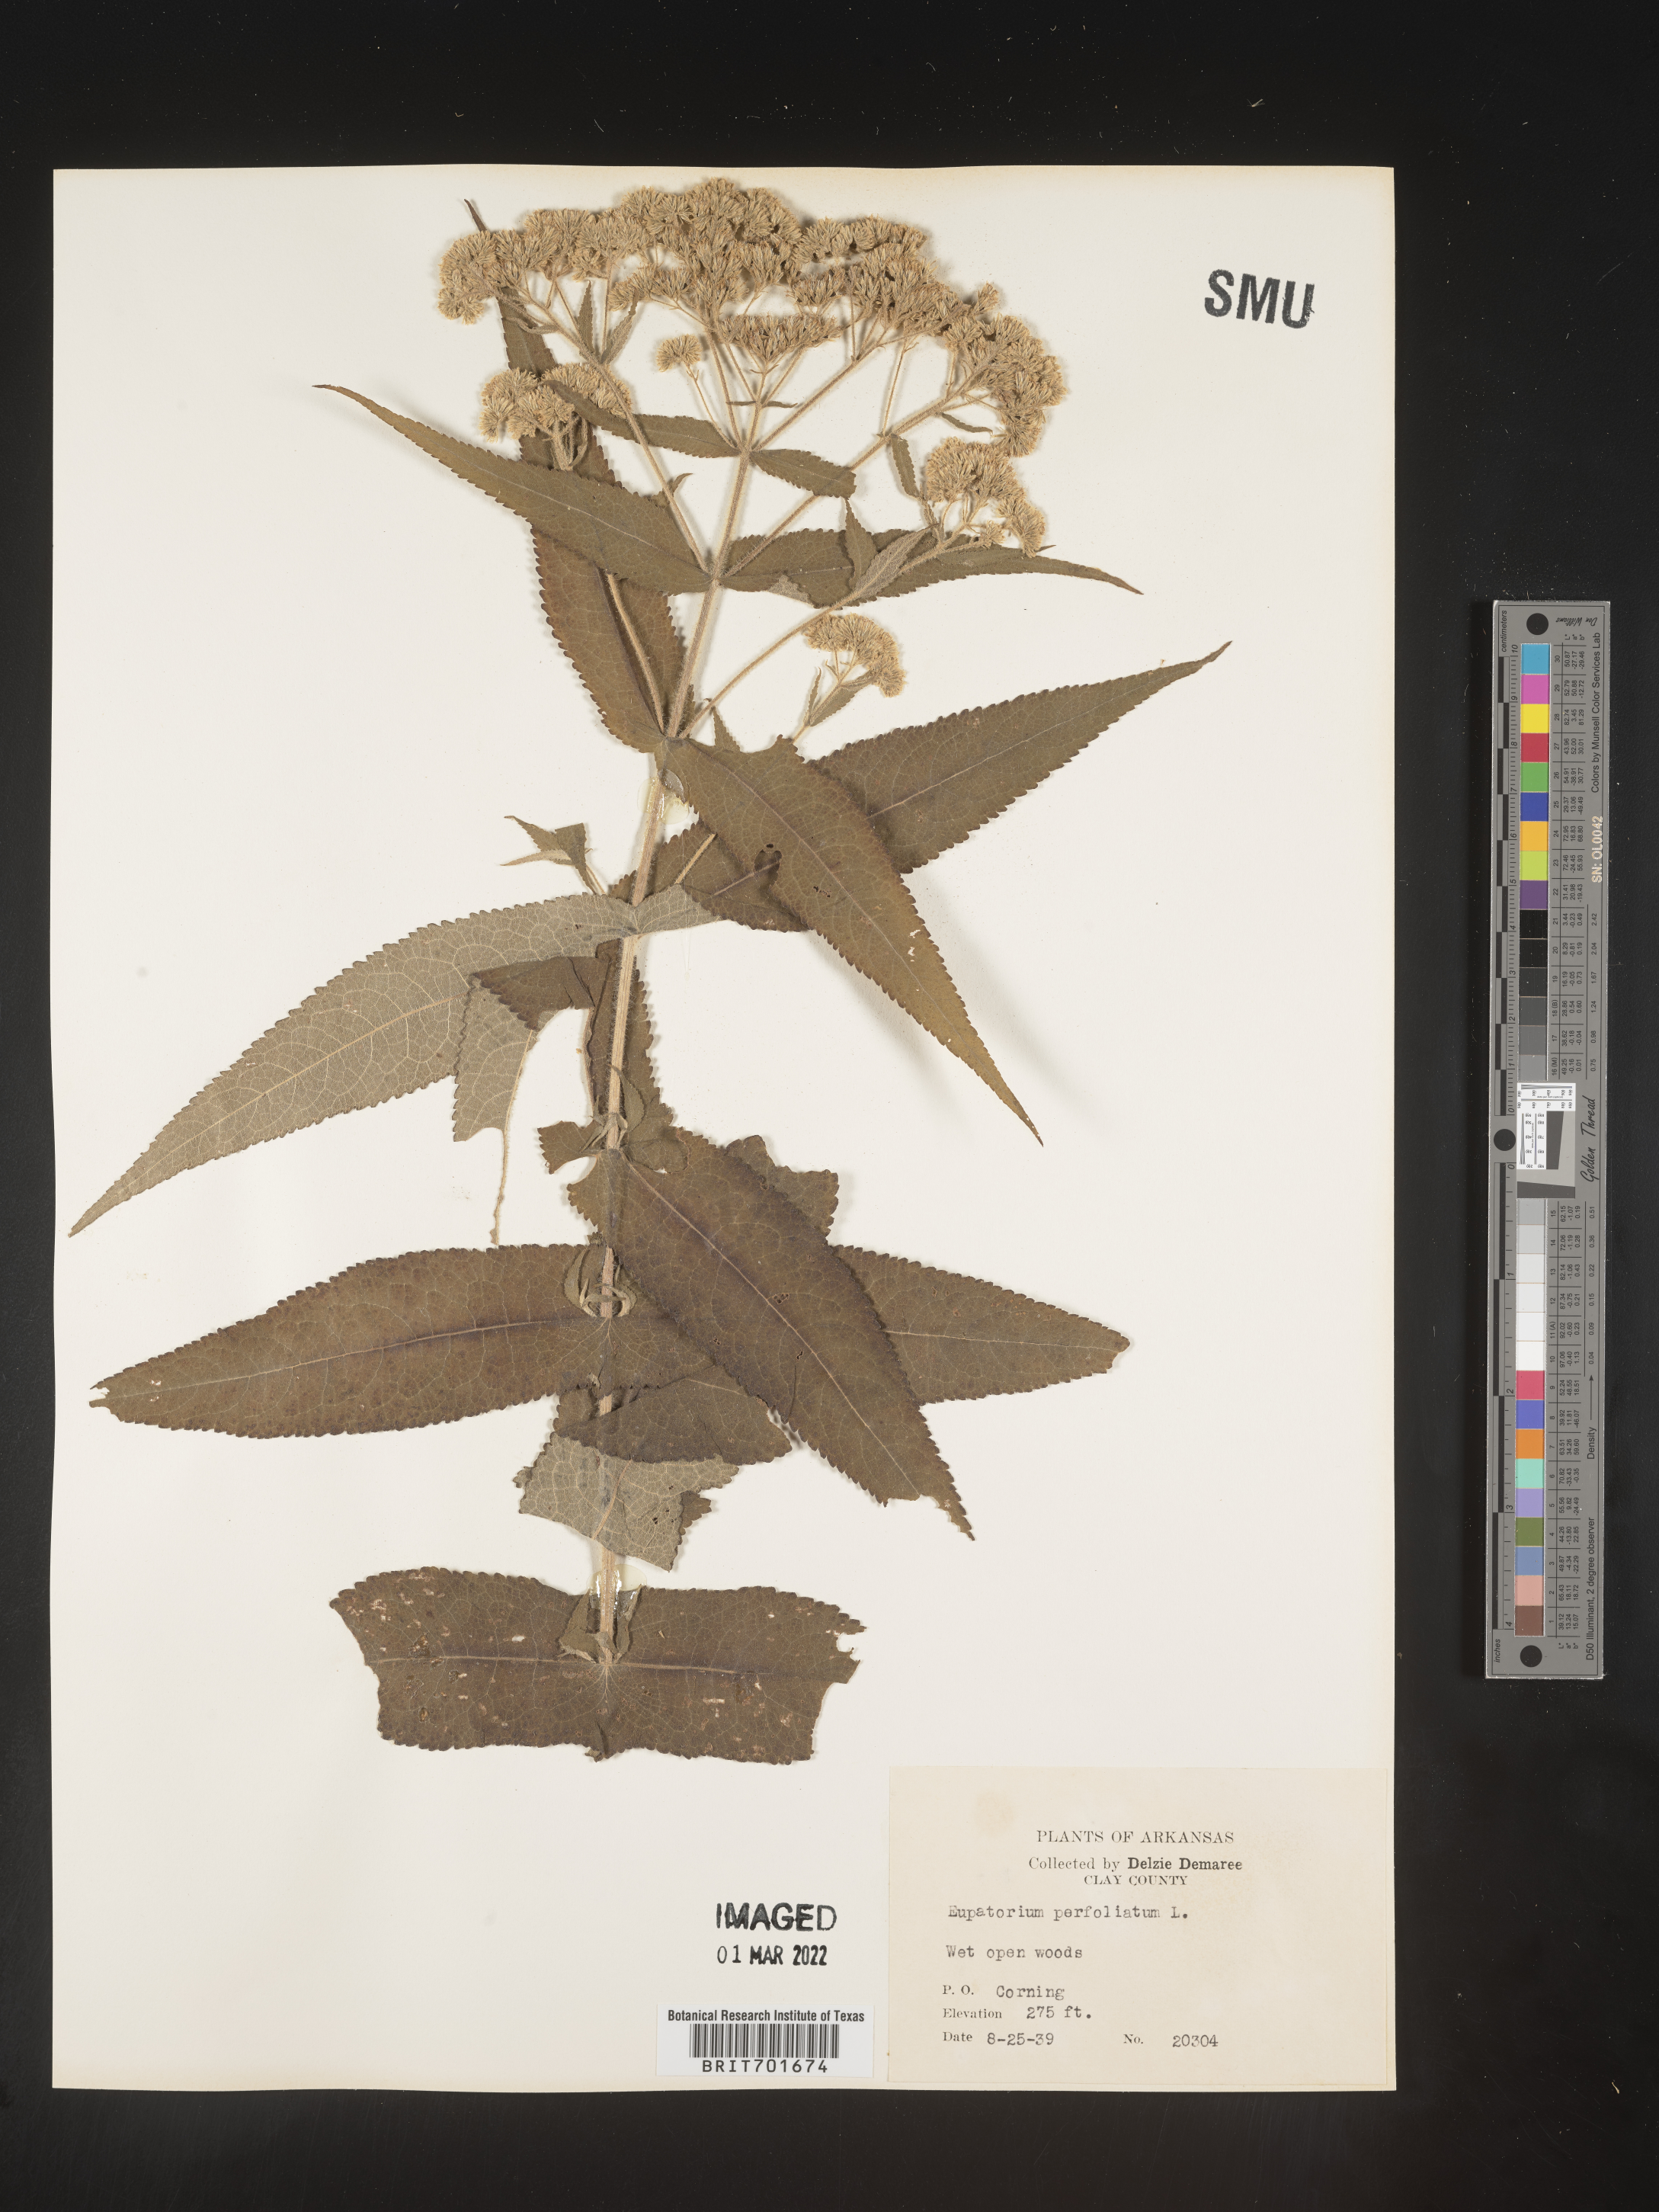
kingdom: Plantae
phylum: Tracheophyta
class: Magnoliopsida
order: Asterales
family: Asteraceae
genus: Eupatorium
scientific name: Eupatorium perfoliatum
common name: Boneset
